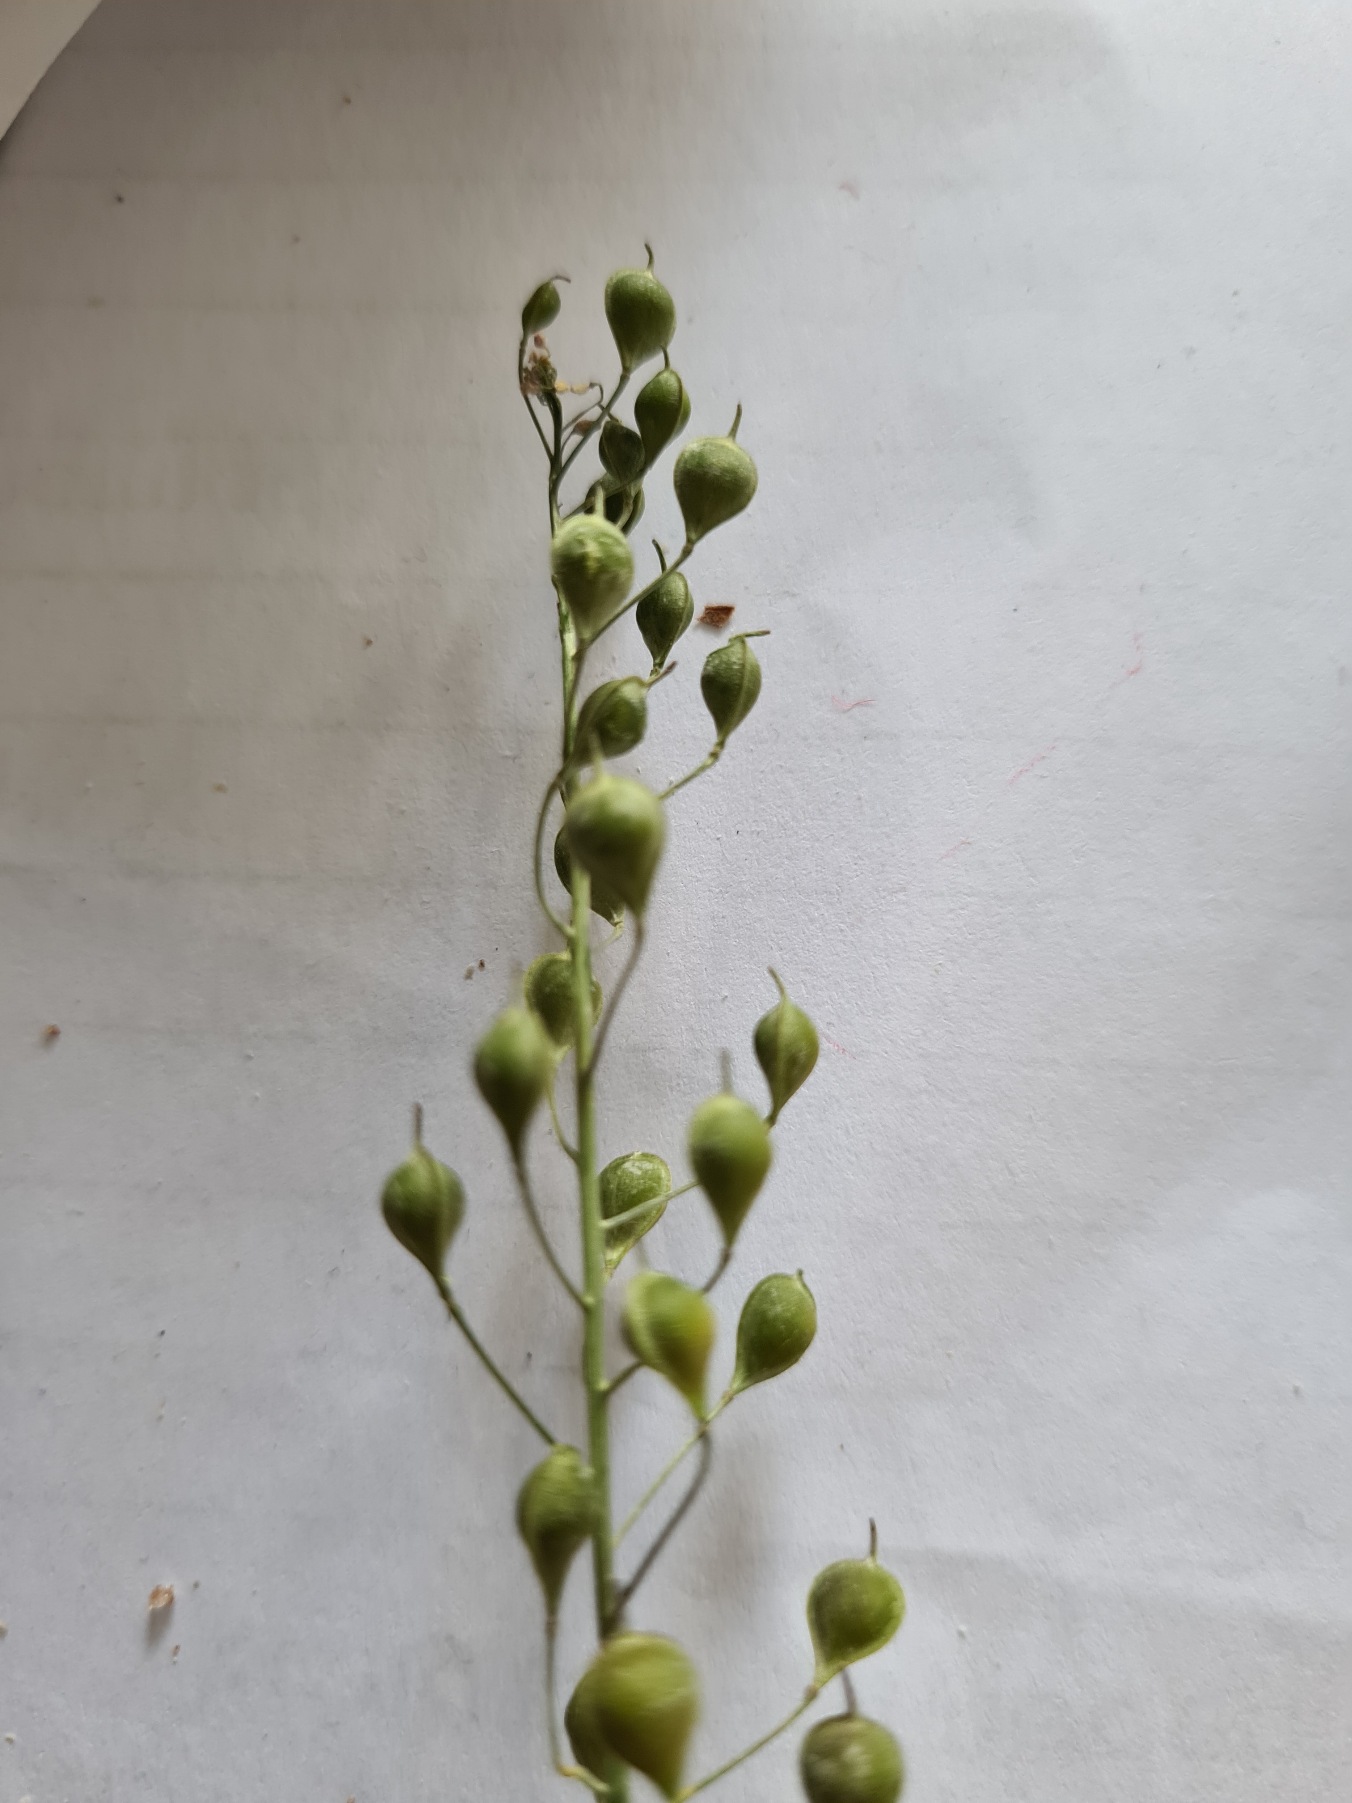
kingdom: Plantae
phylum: Tracheophyta
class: Magnoliopsida
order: Brassicales
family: Brassicaceae
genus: Camelina
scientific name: Camelina microcarpa
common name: Småskulpet dodder
